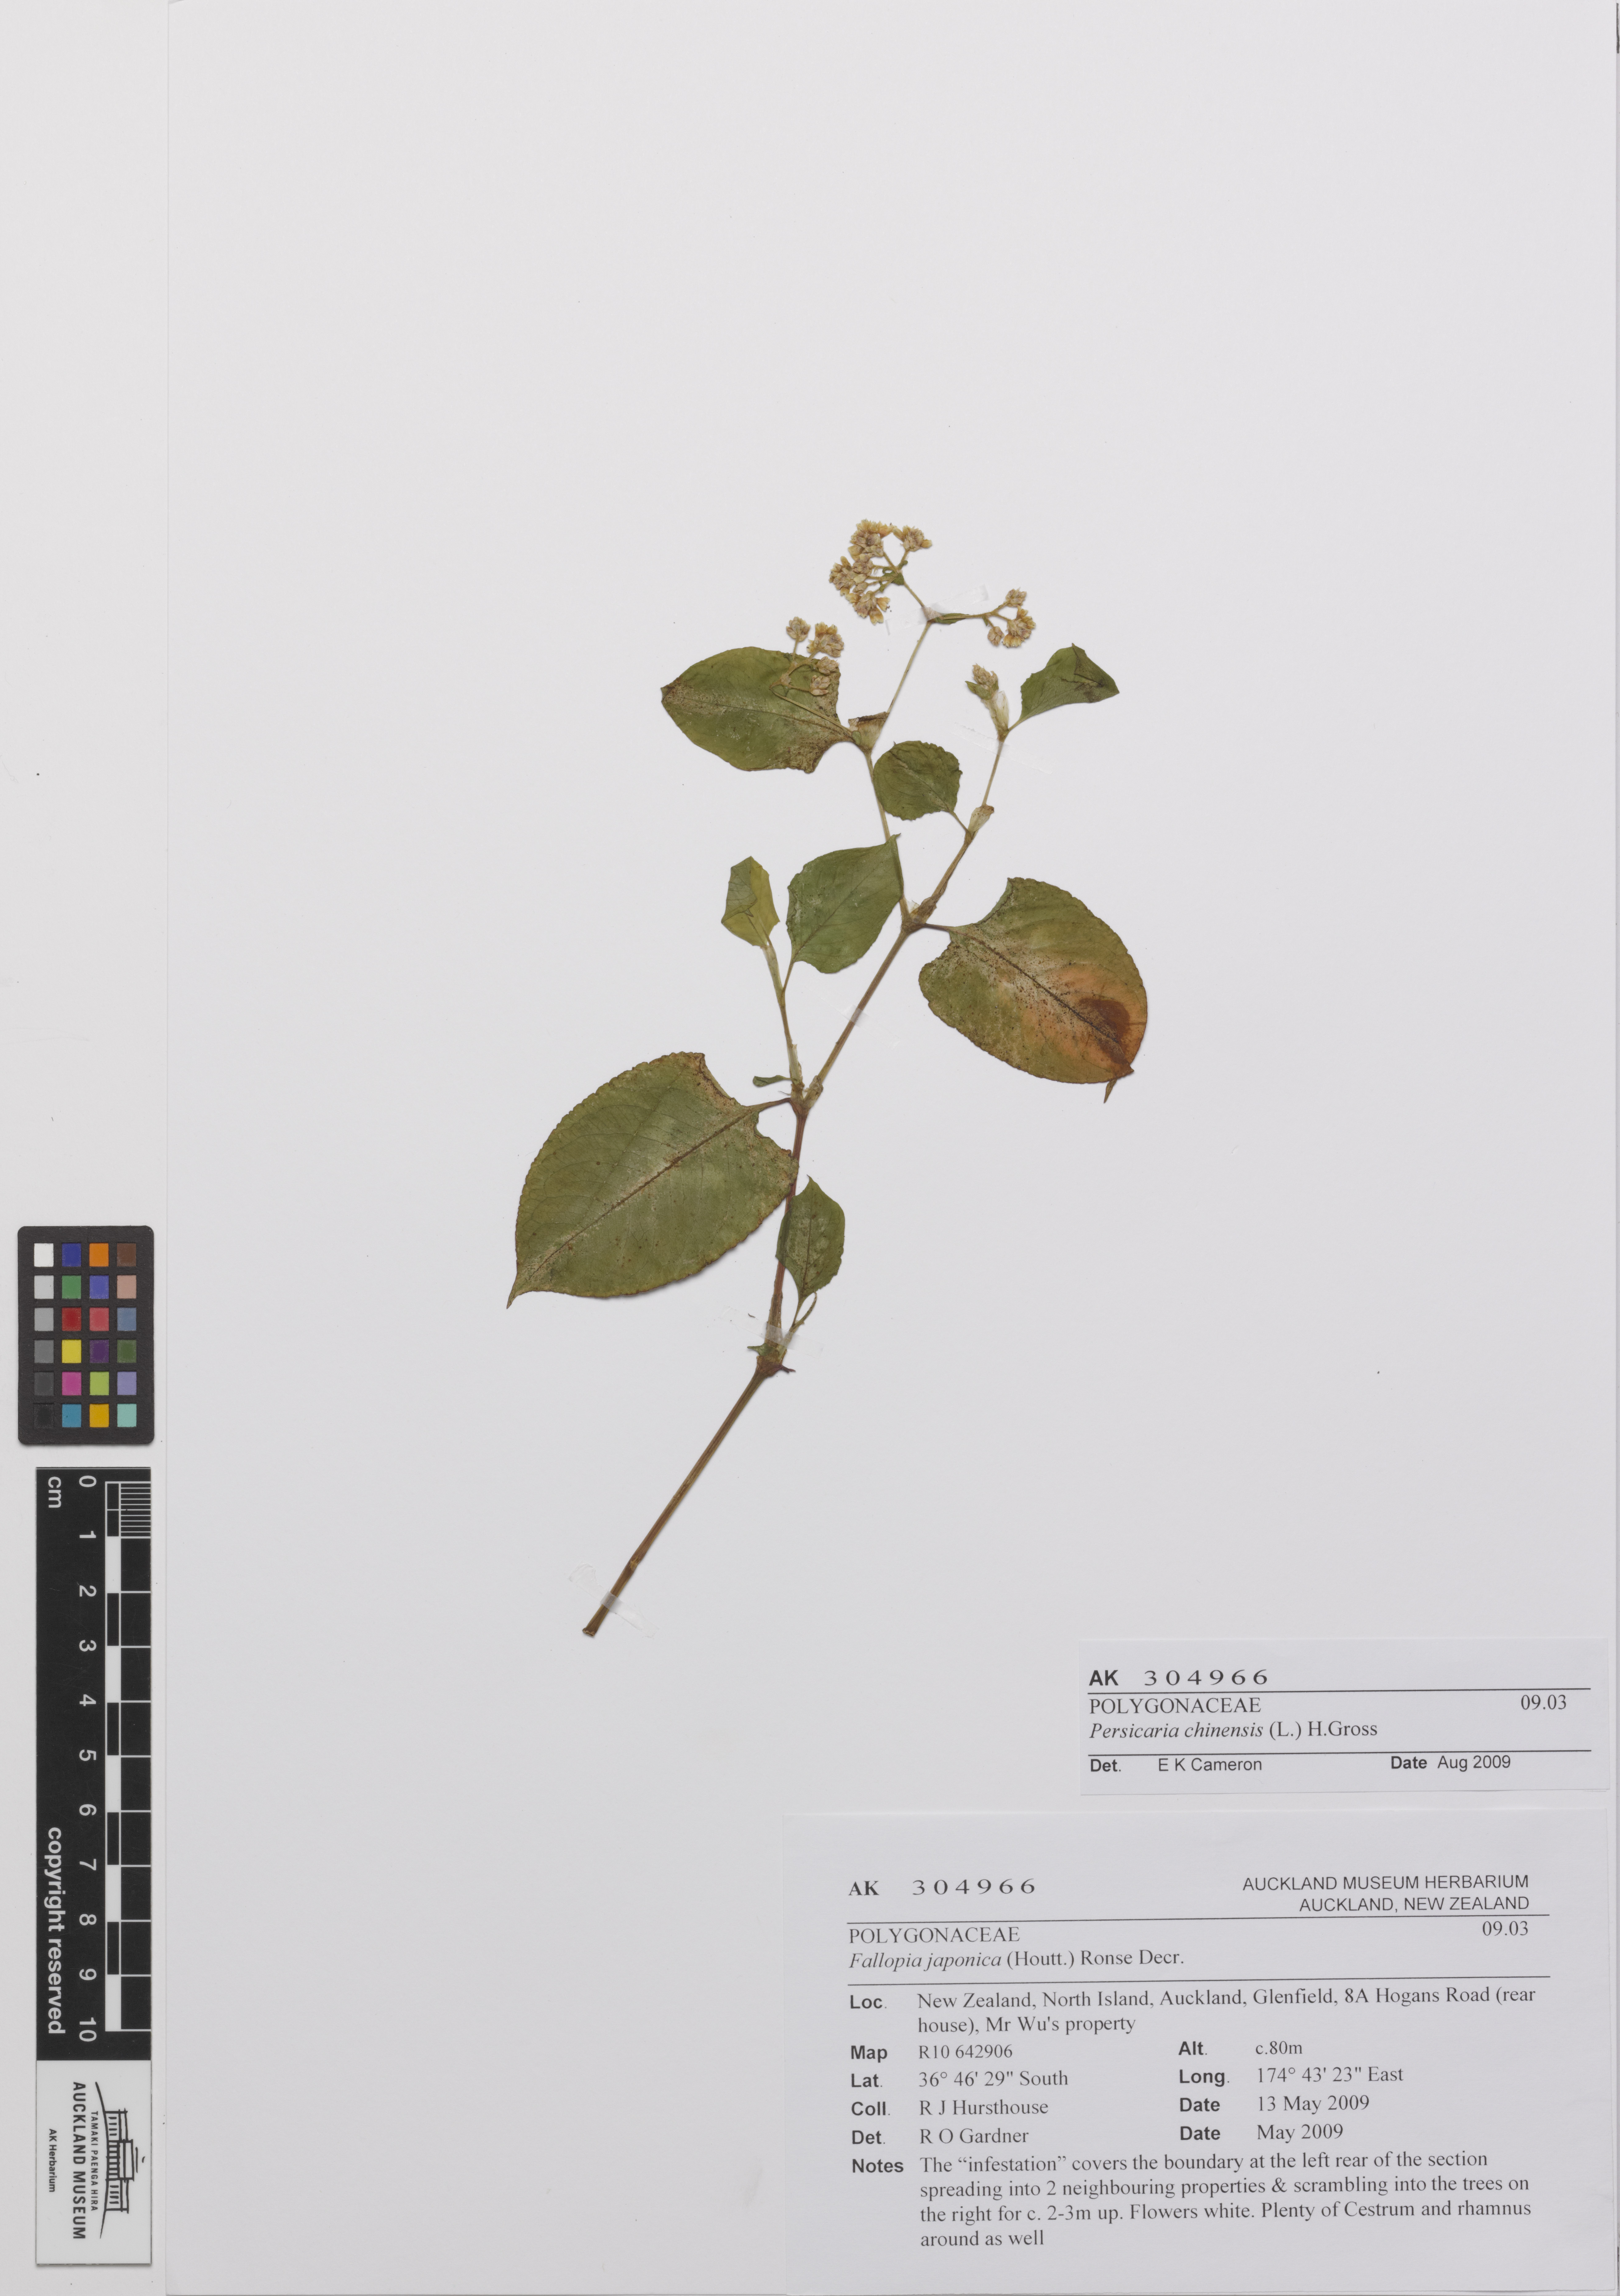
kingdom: Plantae
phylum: Tracheophyta
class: Magnoliopsida
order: Caryophyllales
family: Polygonaceae
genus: Persicaria
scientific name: Persicaria chinensis
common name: Chinese knotweed
